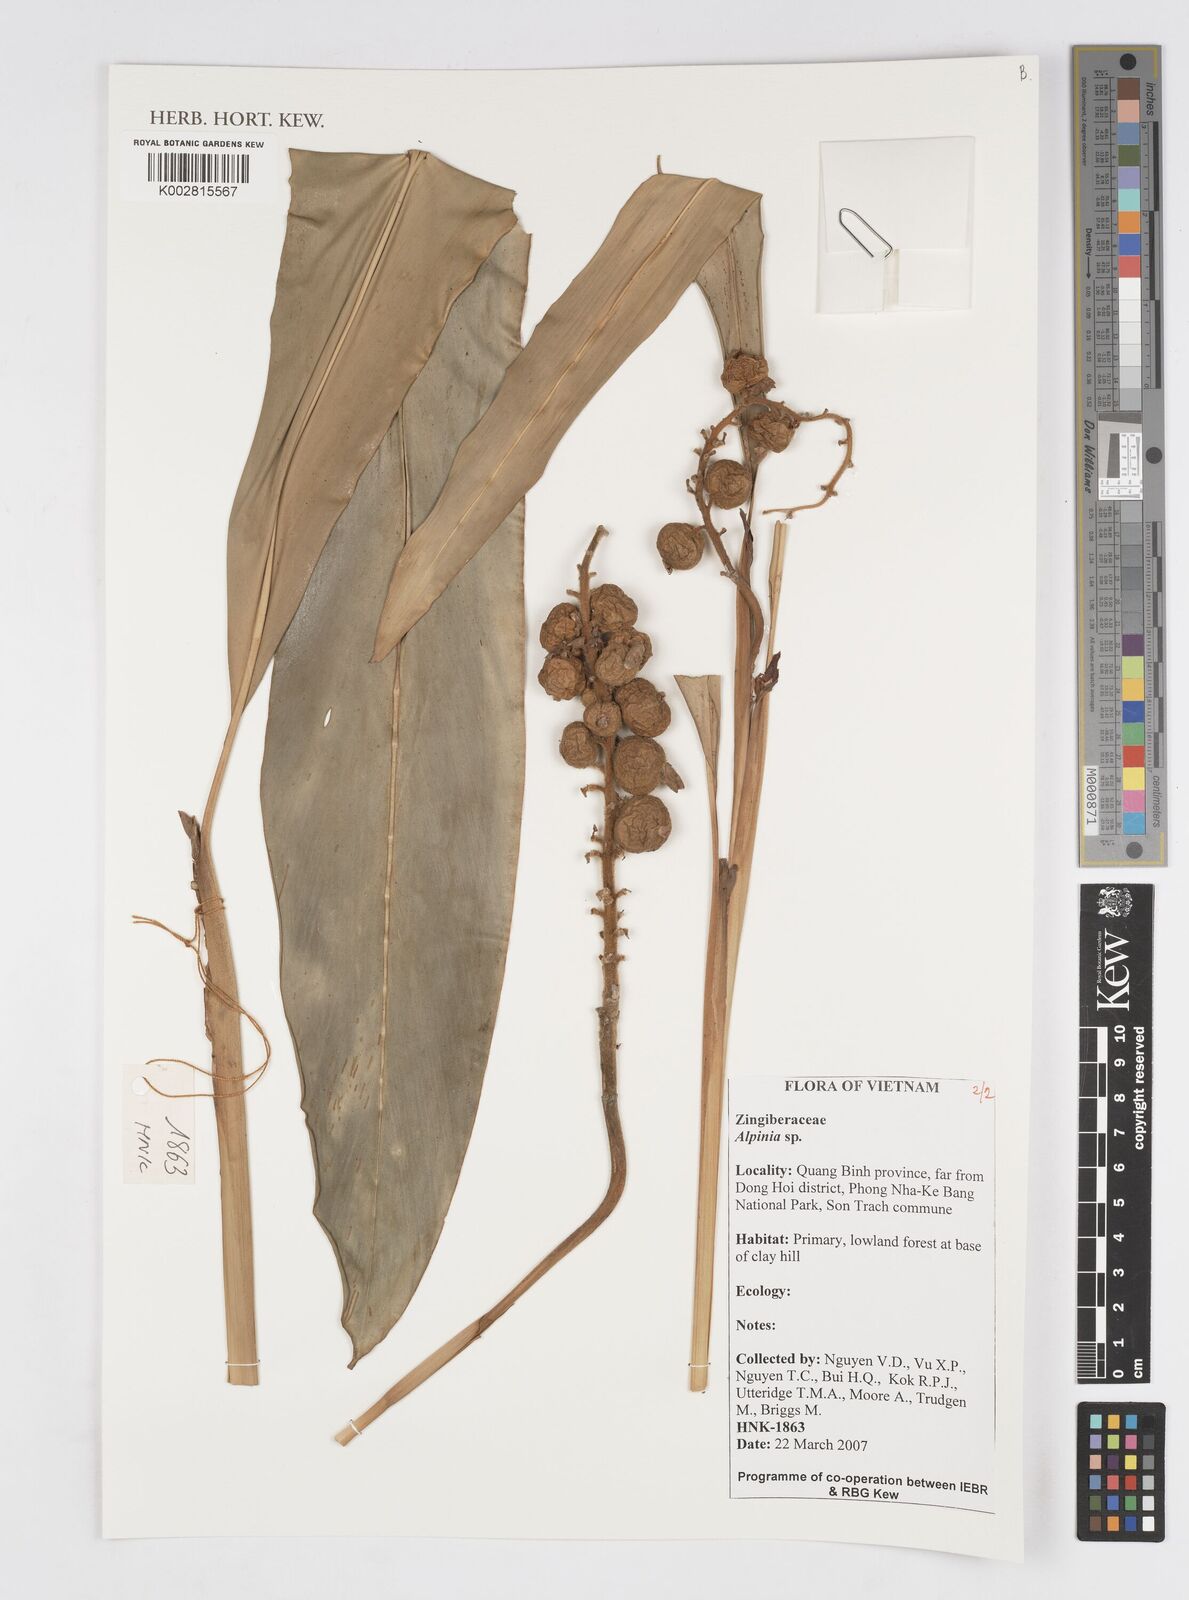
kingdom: Plantae
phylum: Tracheophyta
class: Liliopsida
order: Zingiberales
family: Zingiberaceae
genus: Alpinia
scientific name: Alpinia
